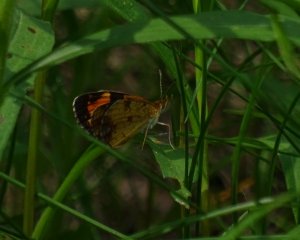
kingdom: Animalia
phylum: Arthropoda
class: Insecta
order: Lepidoptera
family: Nymphalidae
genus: Phyciodes
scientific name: Phyciodes tharos
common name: Pearl Crescent
